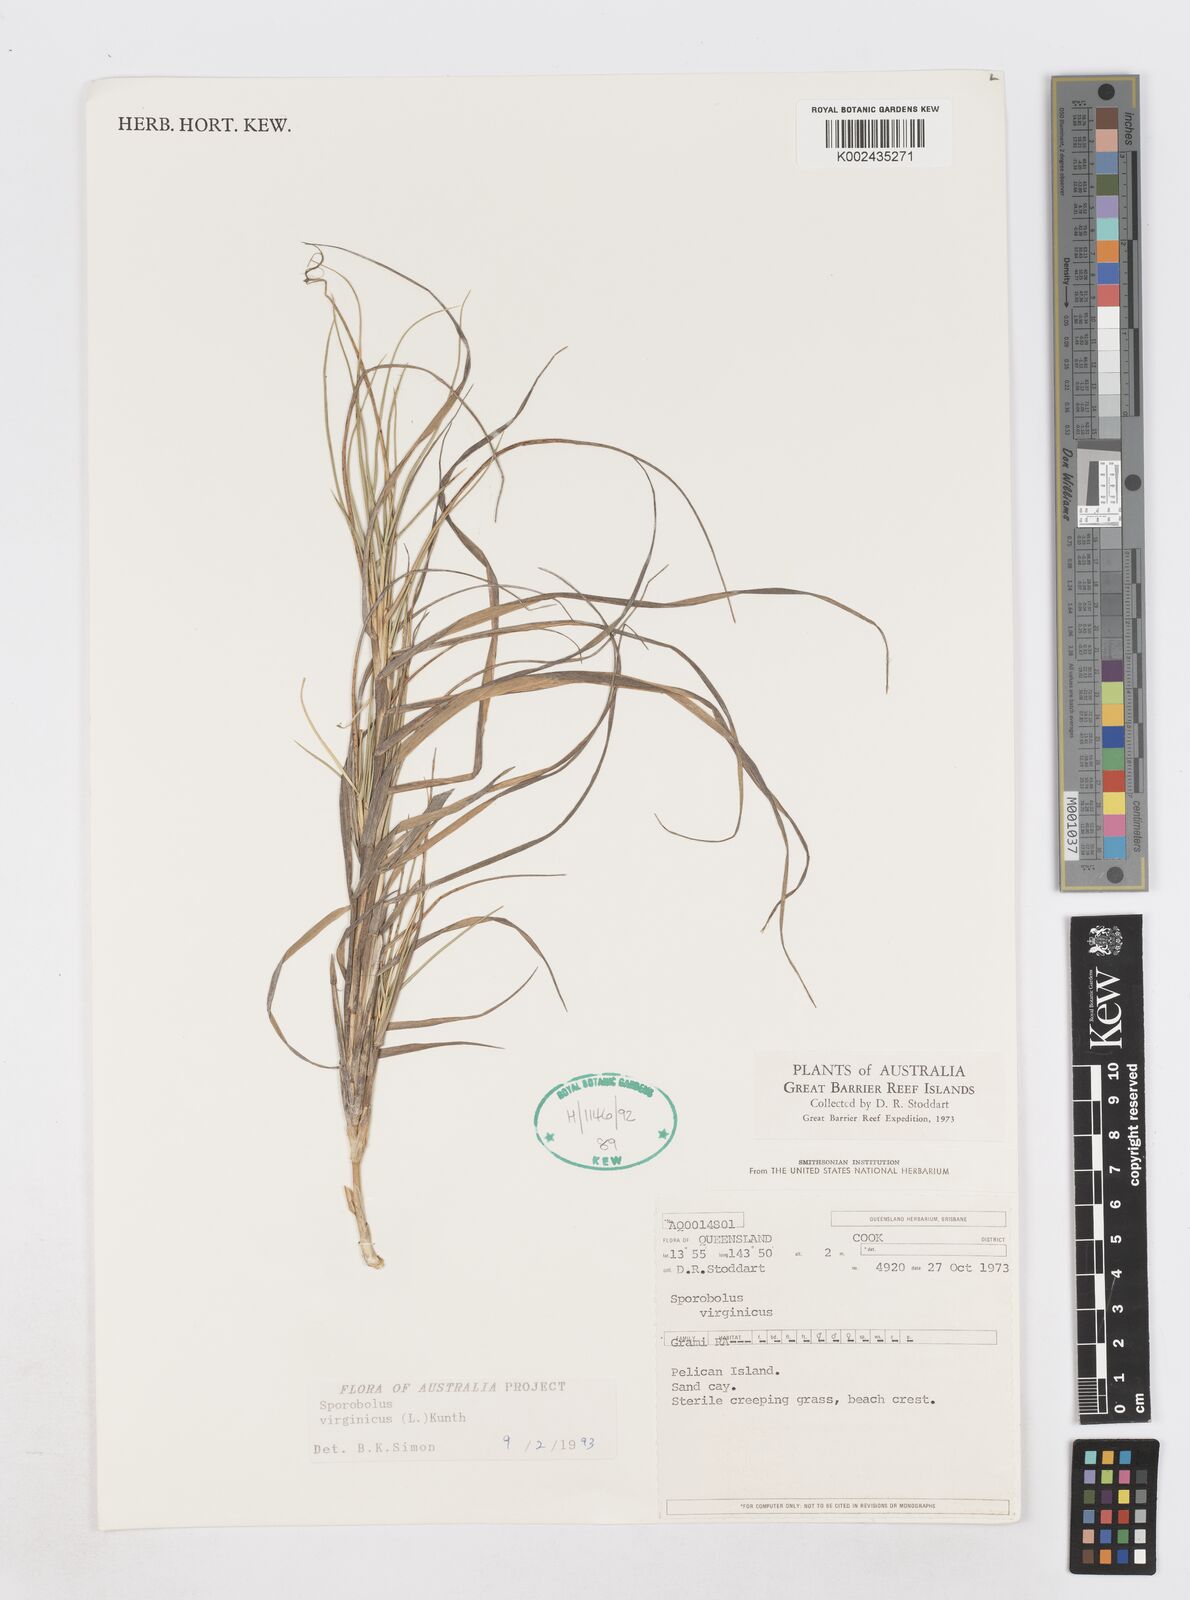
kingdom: Plantae
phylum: Tracheophyta
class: Liliopsida
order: Poales
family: Poaceae
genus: Sporobolus
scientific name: Sporobolus virginicus
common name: Beach dropseed
